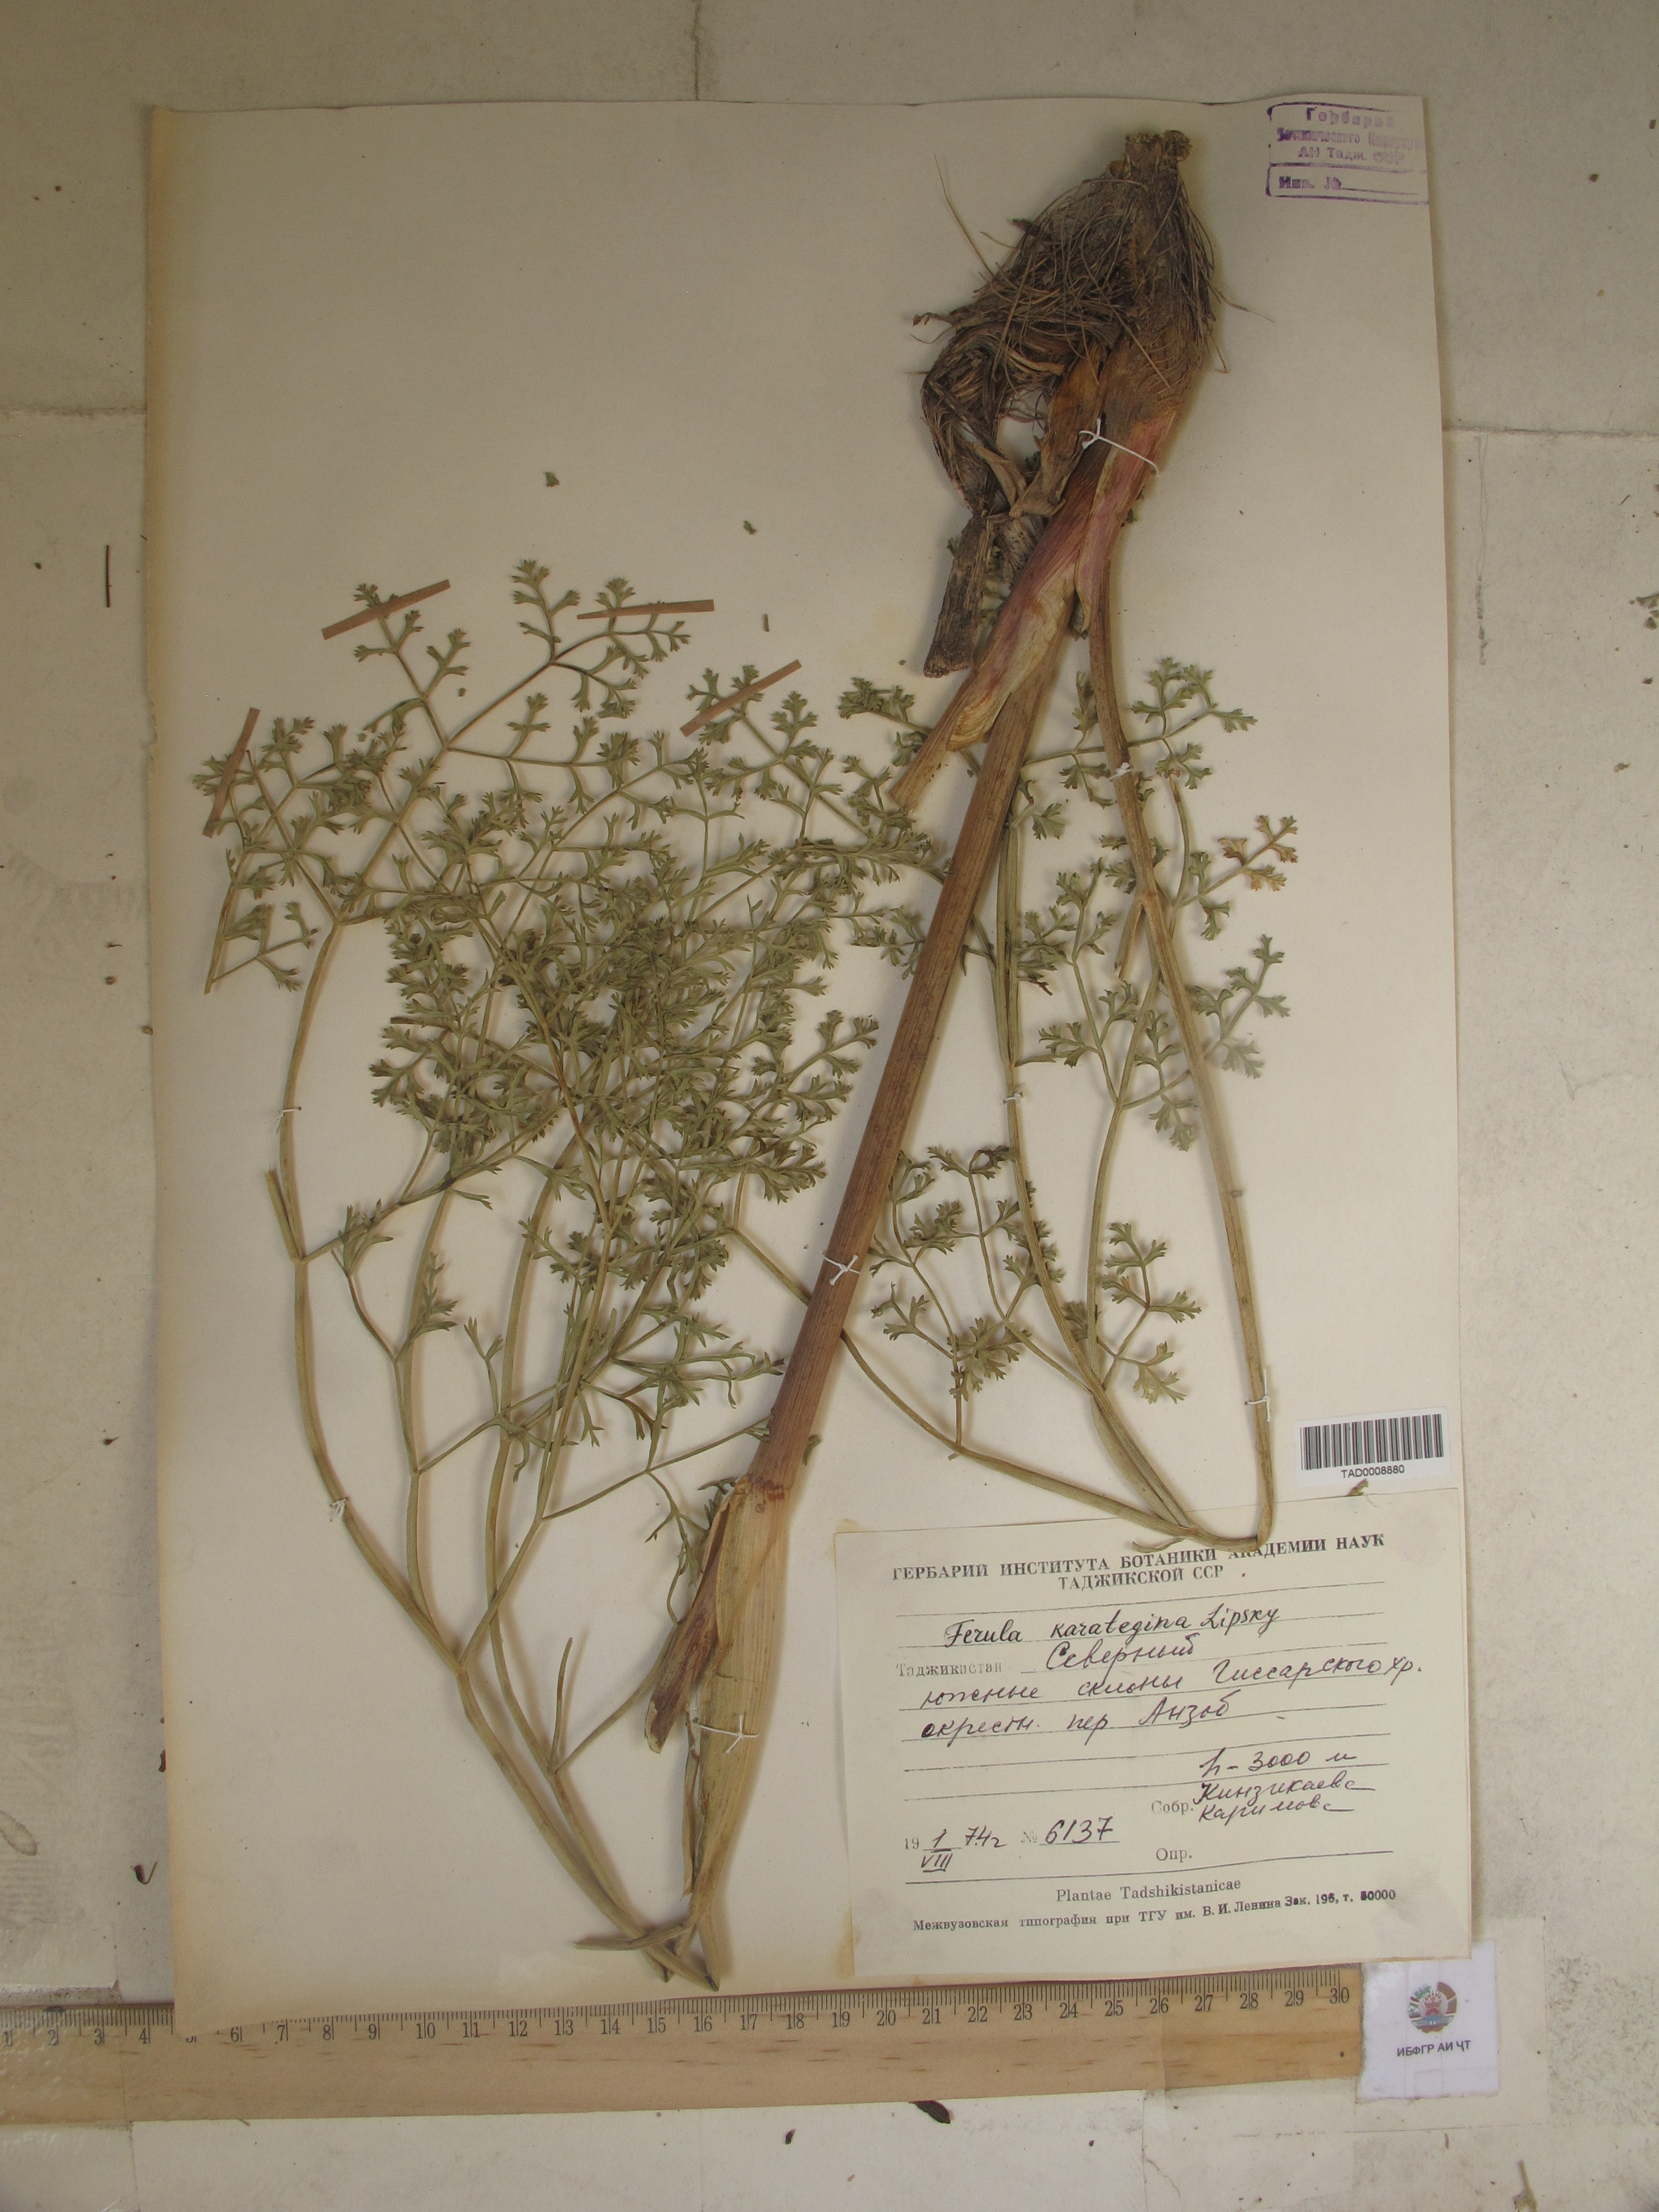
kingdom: Plantae
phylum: Tracheophyta
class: Magnoliopsida
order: Apiales
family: Apiaceae
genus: Ferula
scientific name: Ferula karategina
